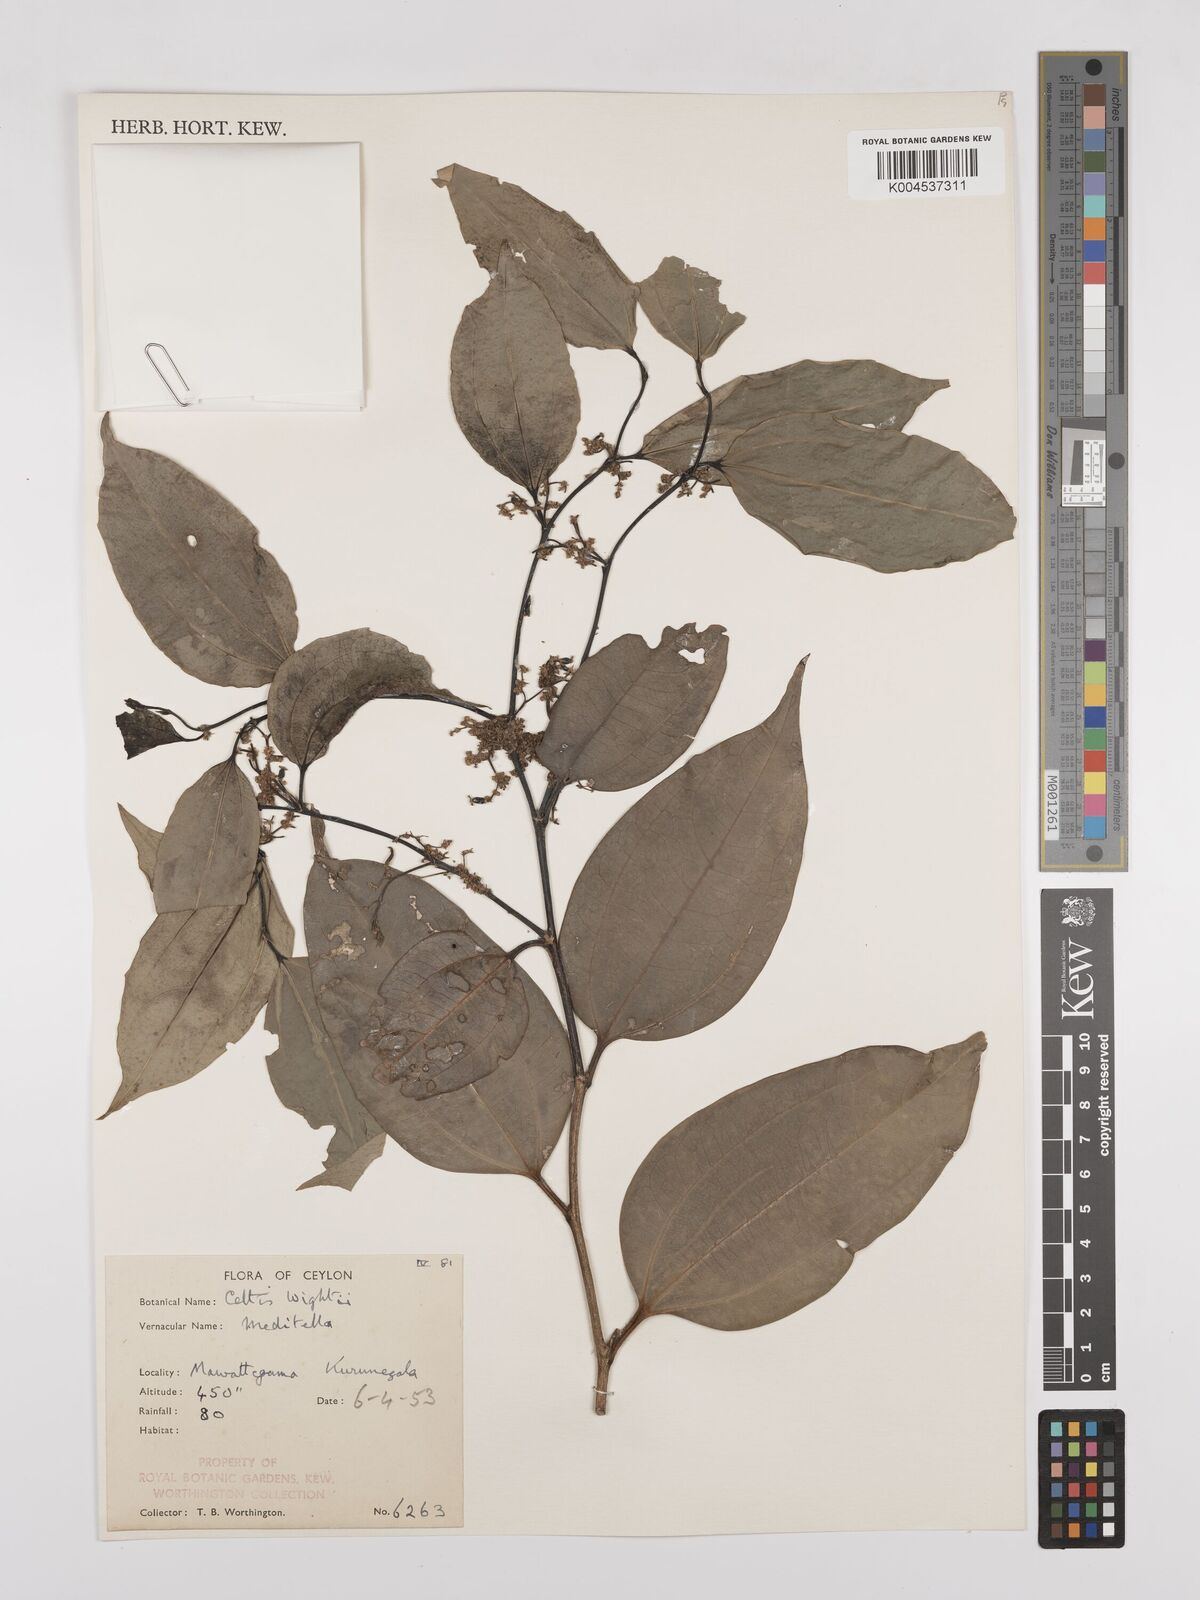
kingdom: Plantae
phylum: Tracheophyta
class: Magnoliopsida
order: Rosales
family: Cannabaceae
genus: Celtis
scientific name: Celtis philippensis
